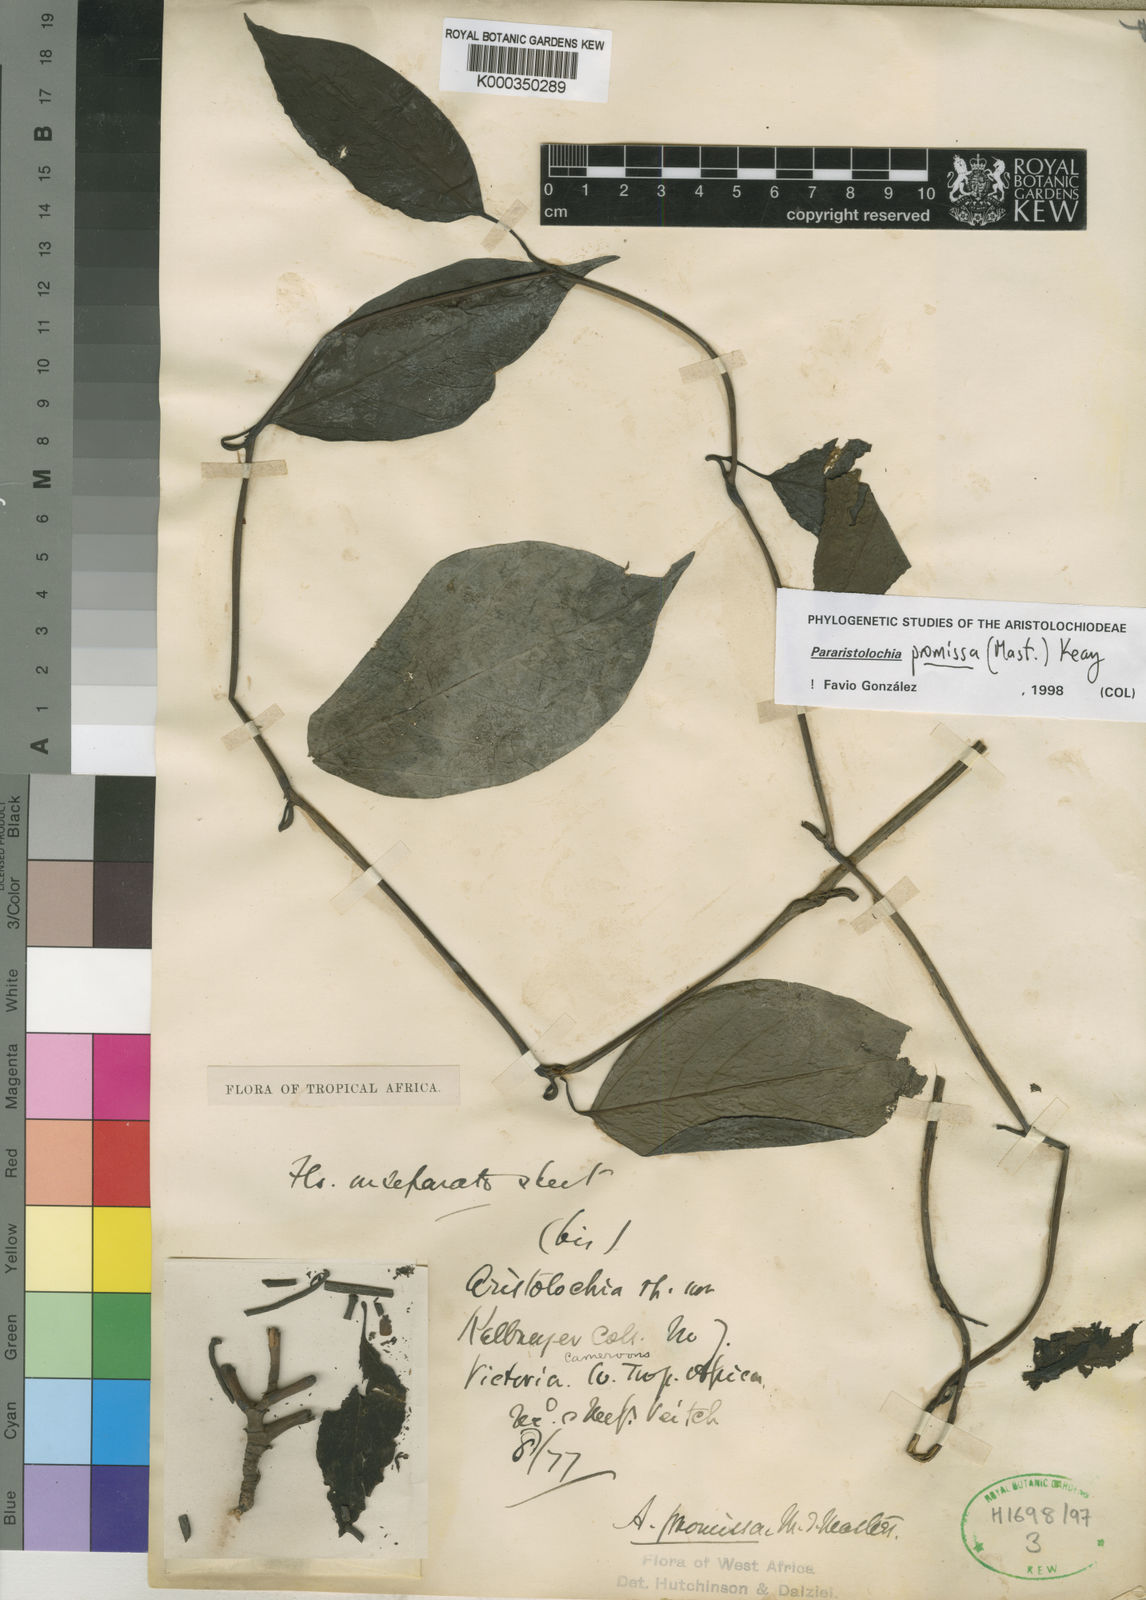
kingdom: Plantae
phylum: Tracheophyta
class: Magnoliopsida
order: Piperales
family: Aristolochiaceae
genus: Aristolochia
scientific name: Aristolochia promissa
